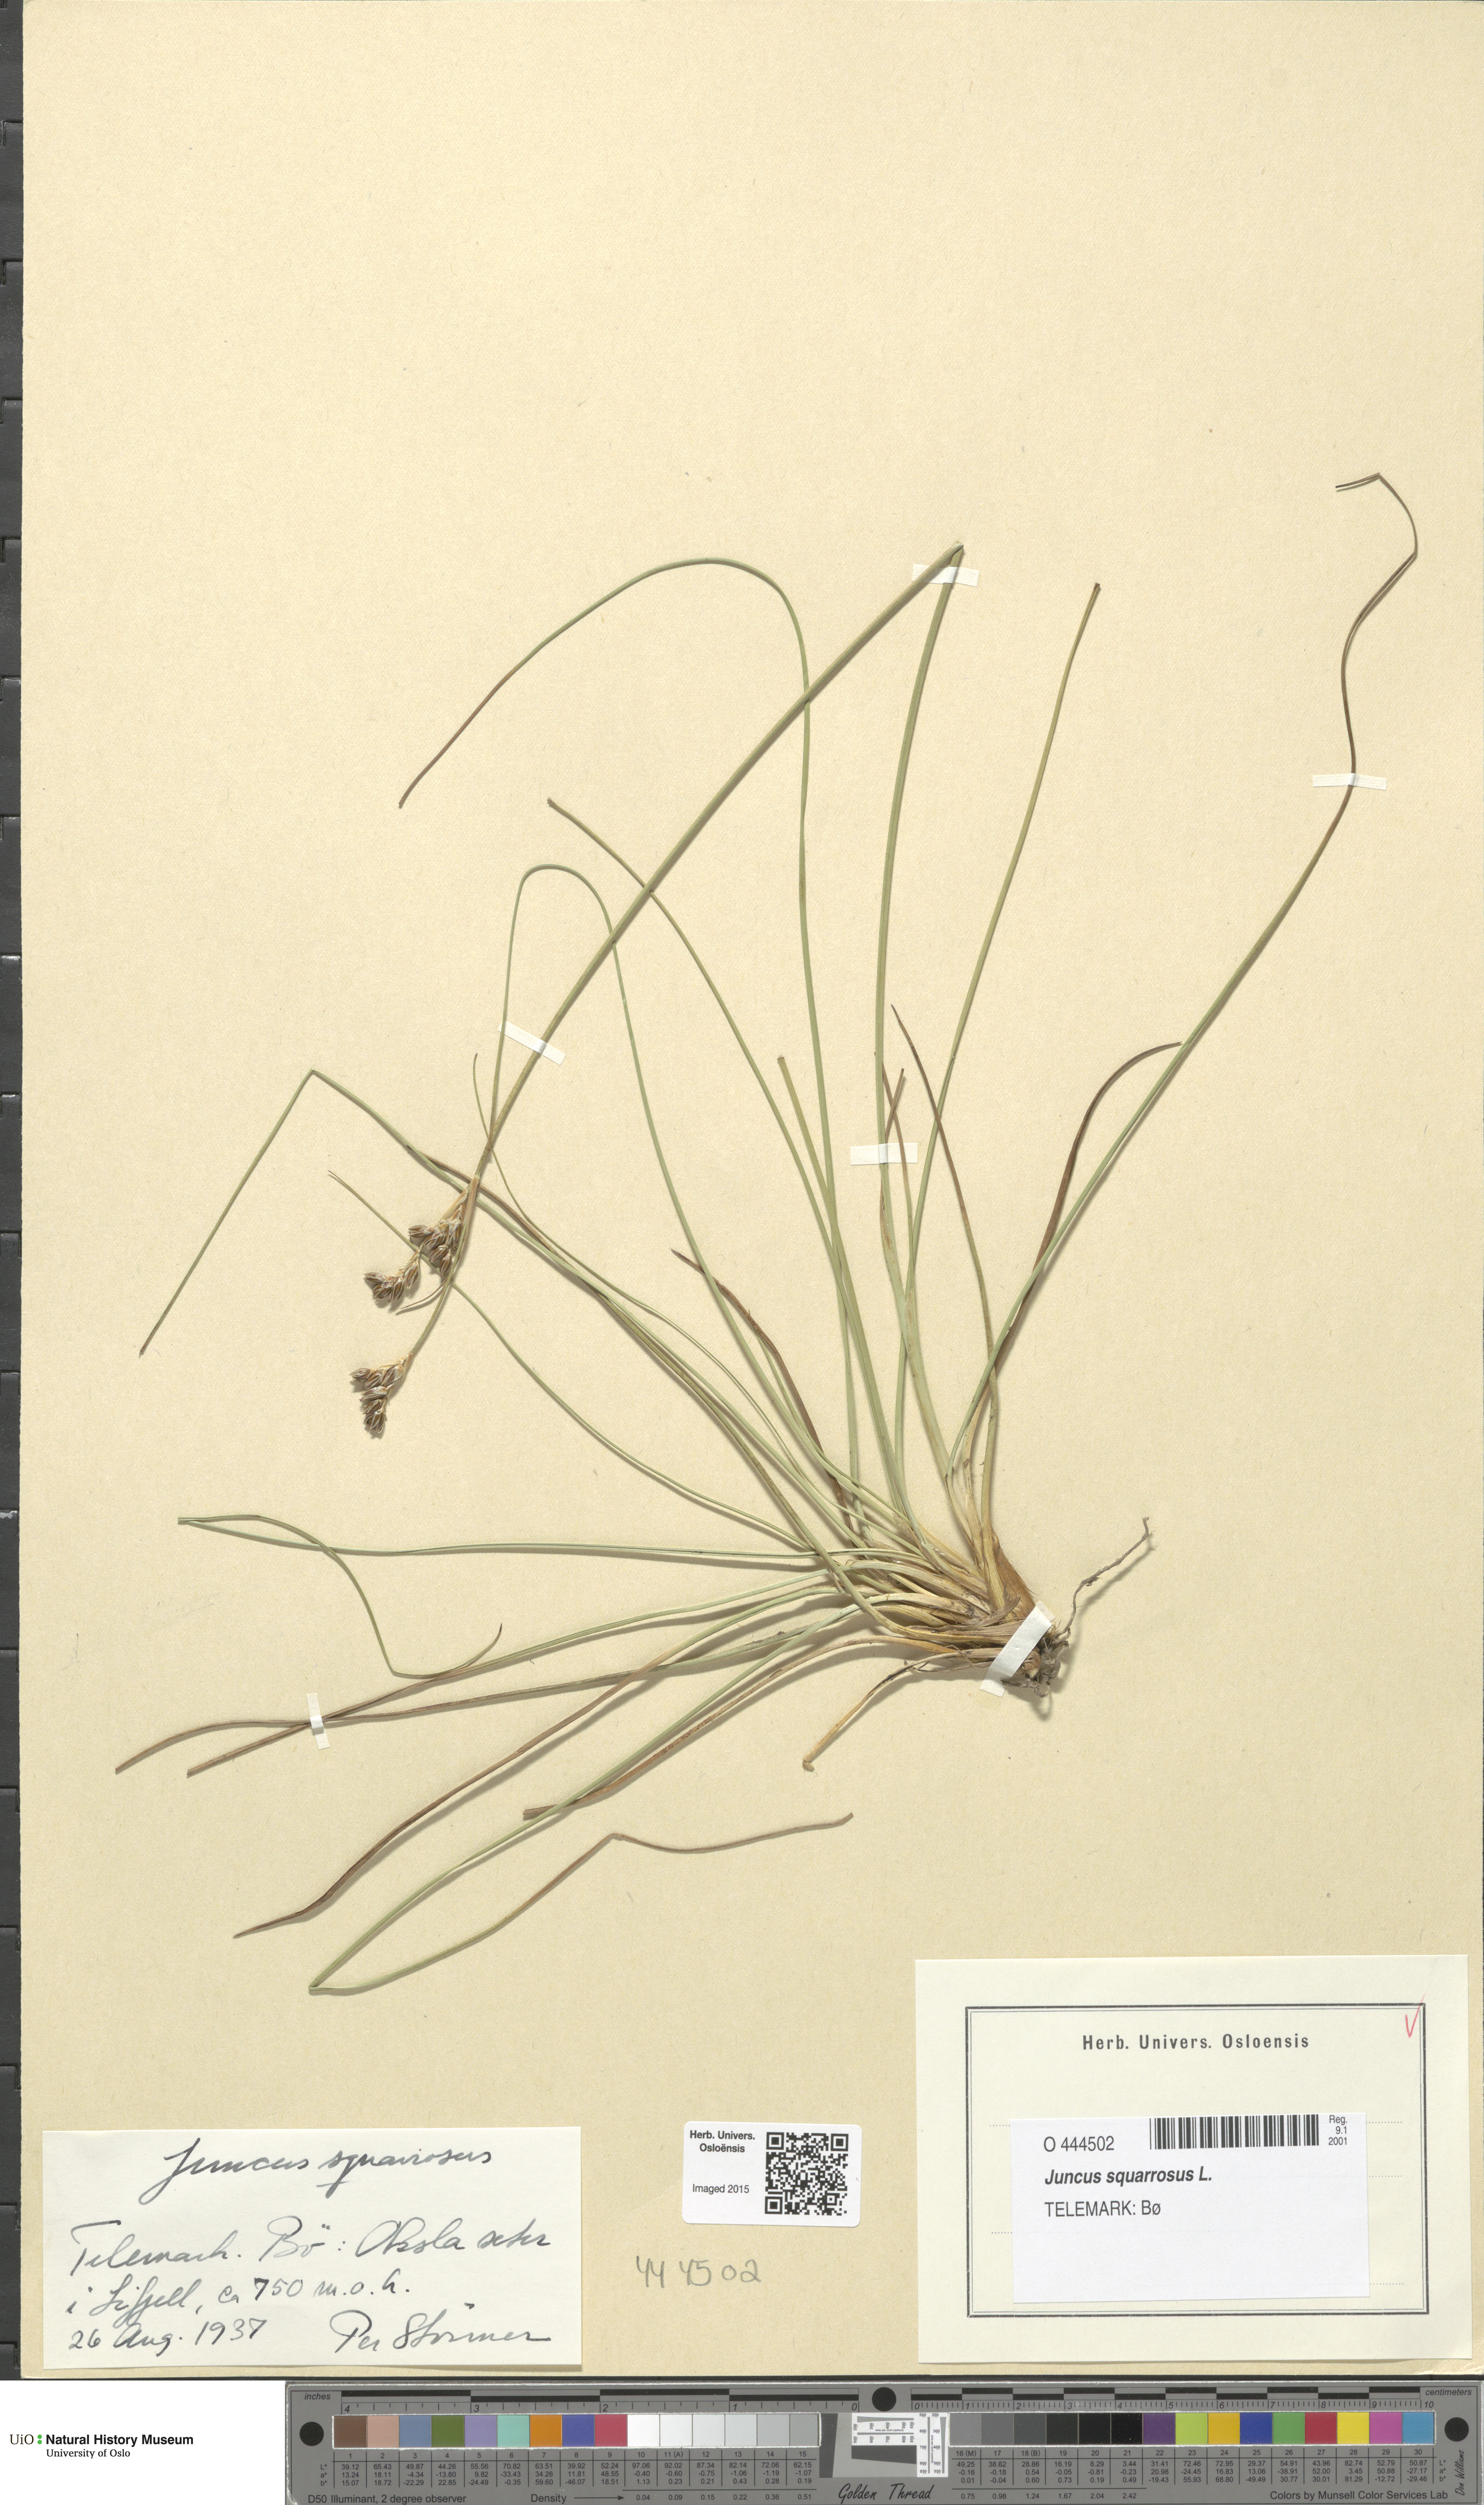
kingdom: Plantae
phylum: Tracheophyta
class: Liliopsida
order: Poales
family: Juncaceae
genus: Juncus
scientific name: Juncus squarrosus
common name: Heath rush
